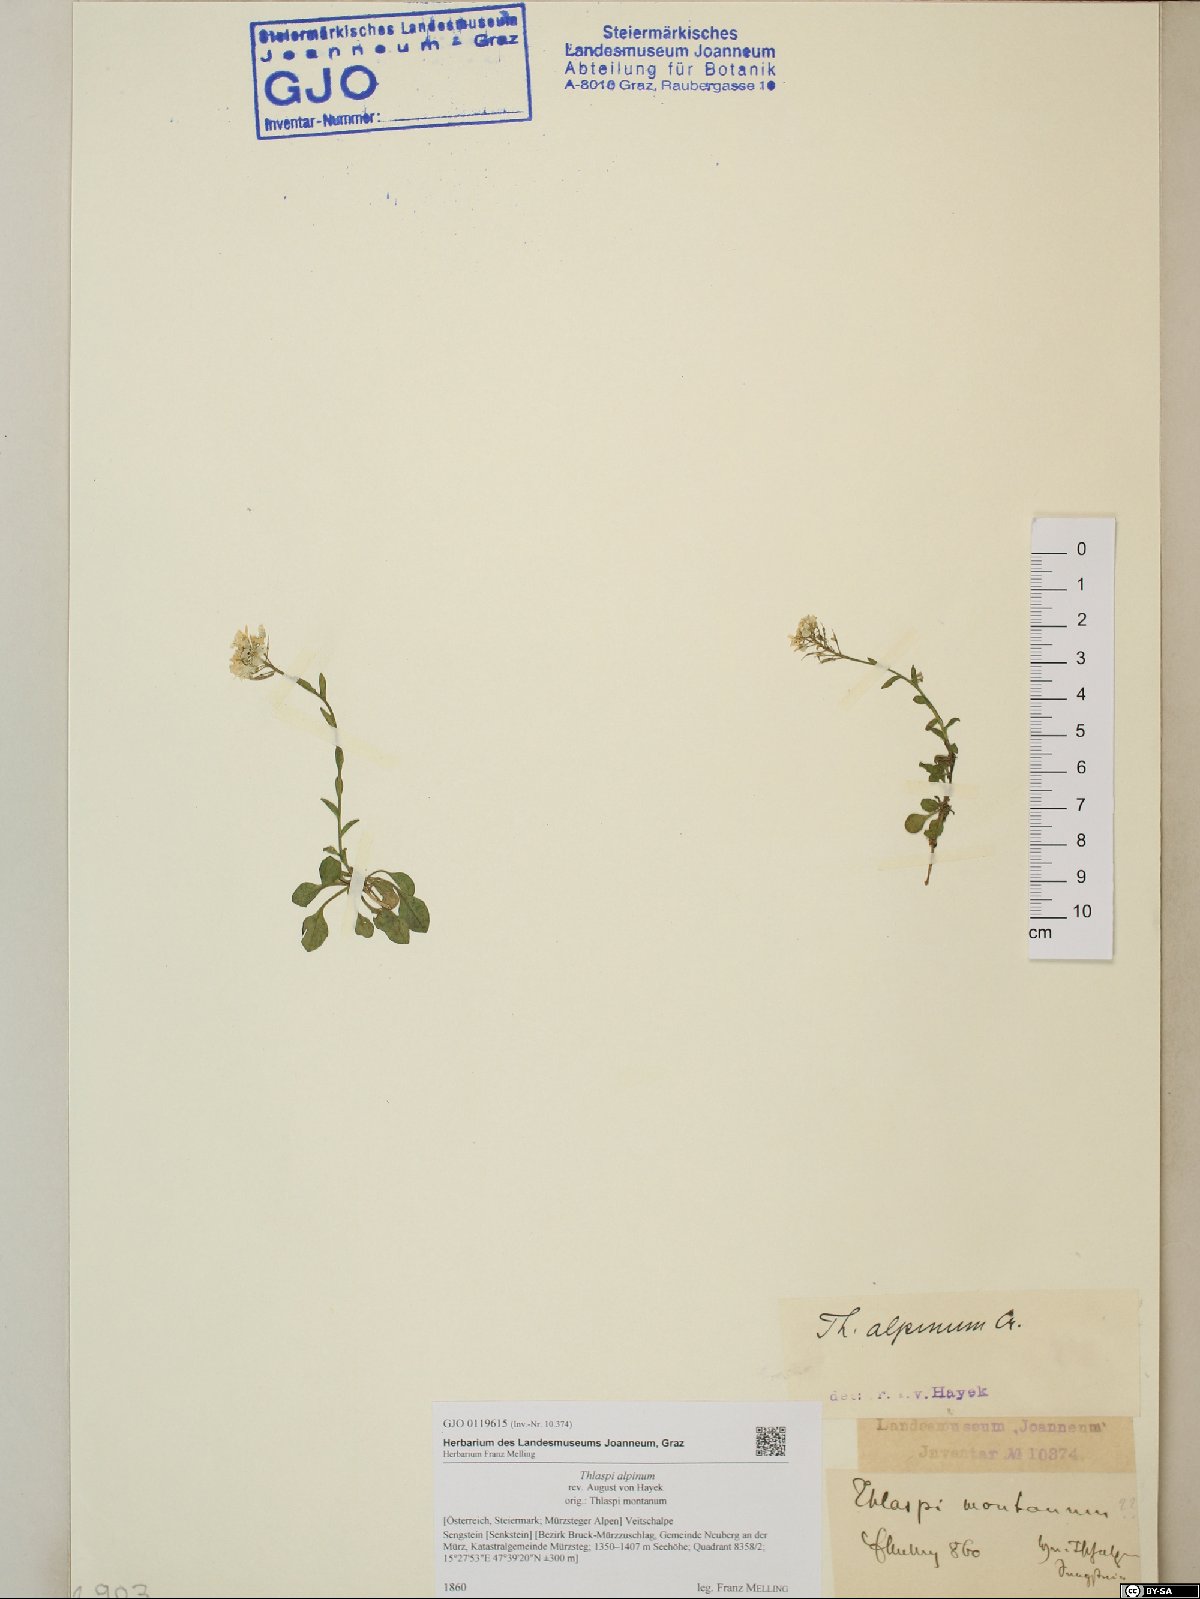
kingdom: Plantae
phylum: Tracheophyta
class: Magnoliopsida
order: Brassicales
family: Brassicaceae
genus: Noccaea
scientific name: Noccaea alpestris
